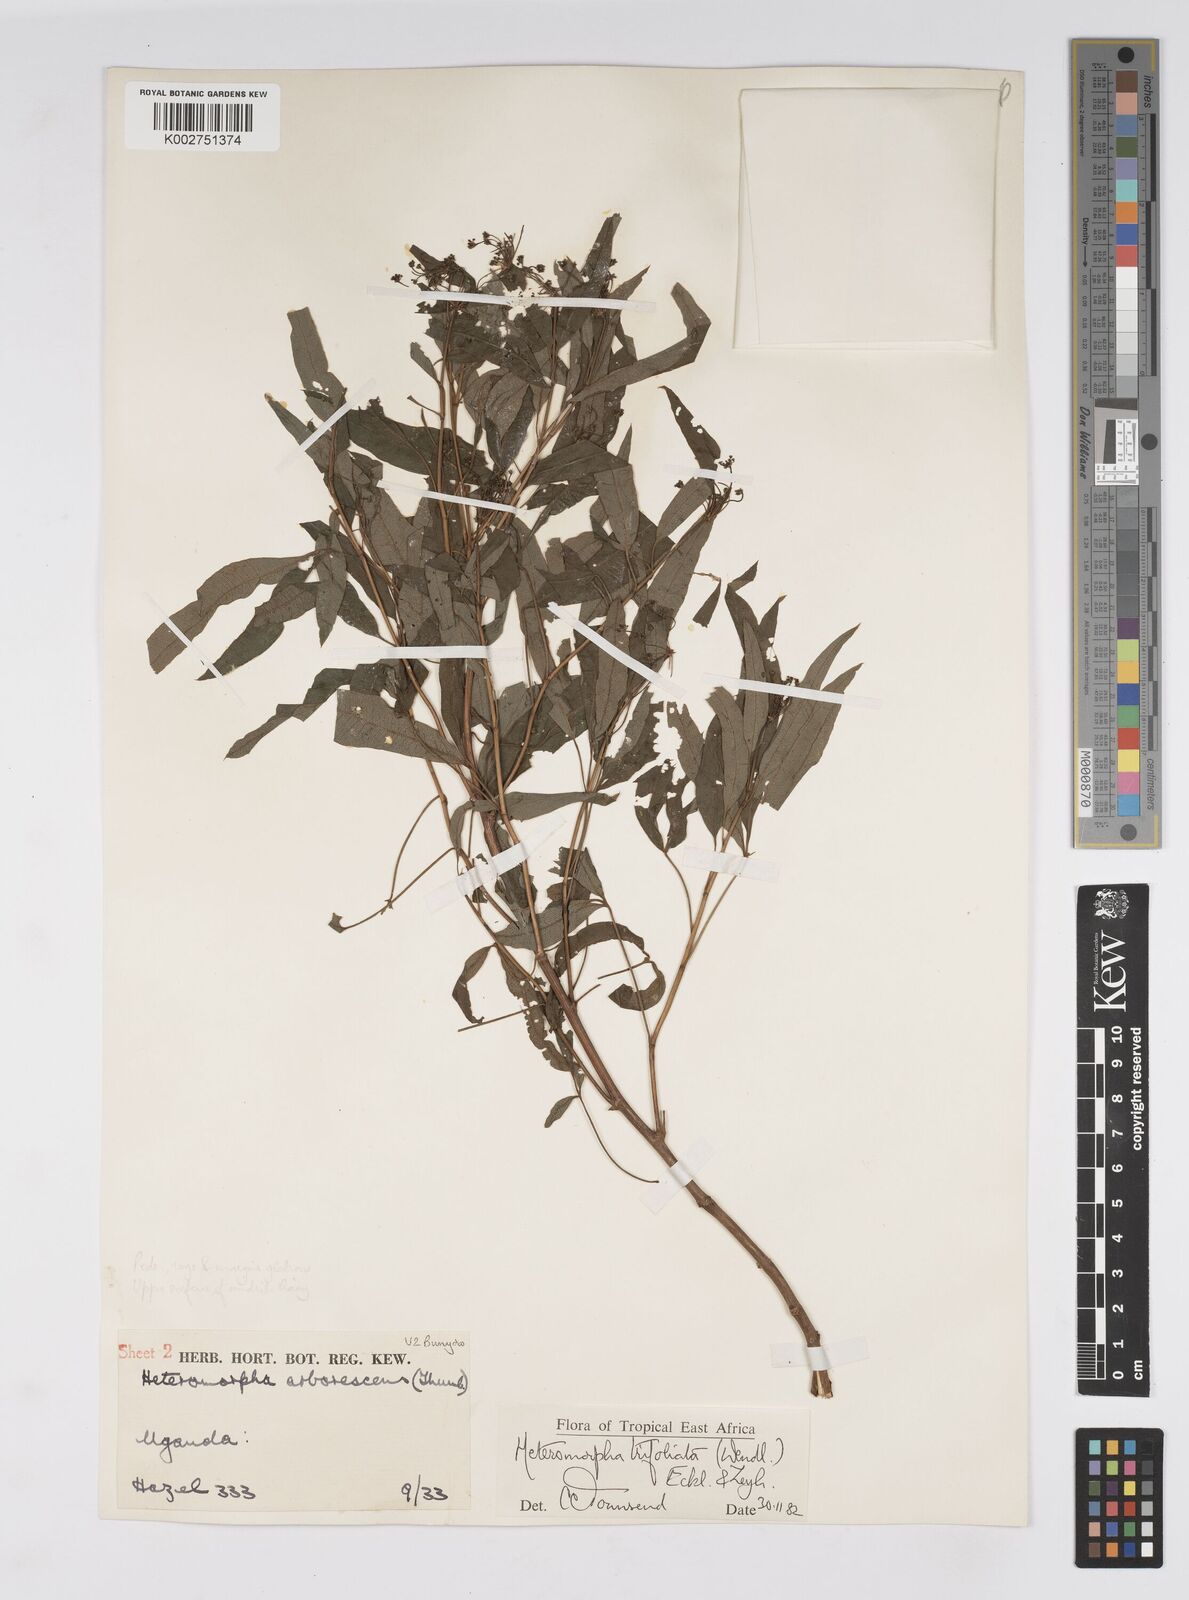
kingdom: Plantae
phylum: Tracheophyta
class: Magnoliopsida
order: Apiales
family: Apiaceae
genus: Heteromorpha
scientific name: Heteromorpha arborescens
